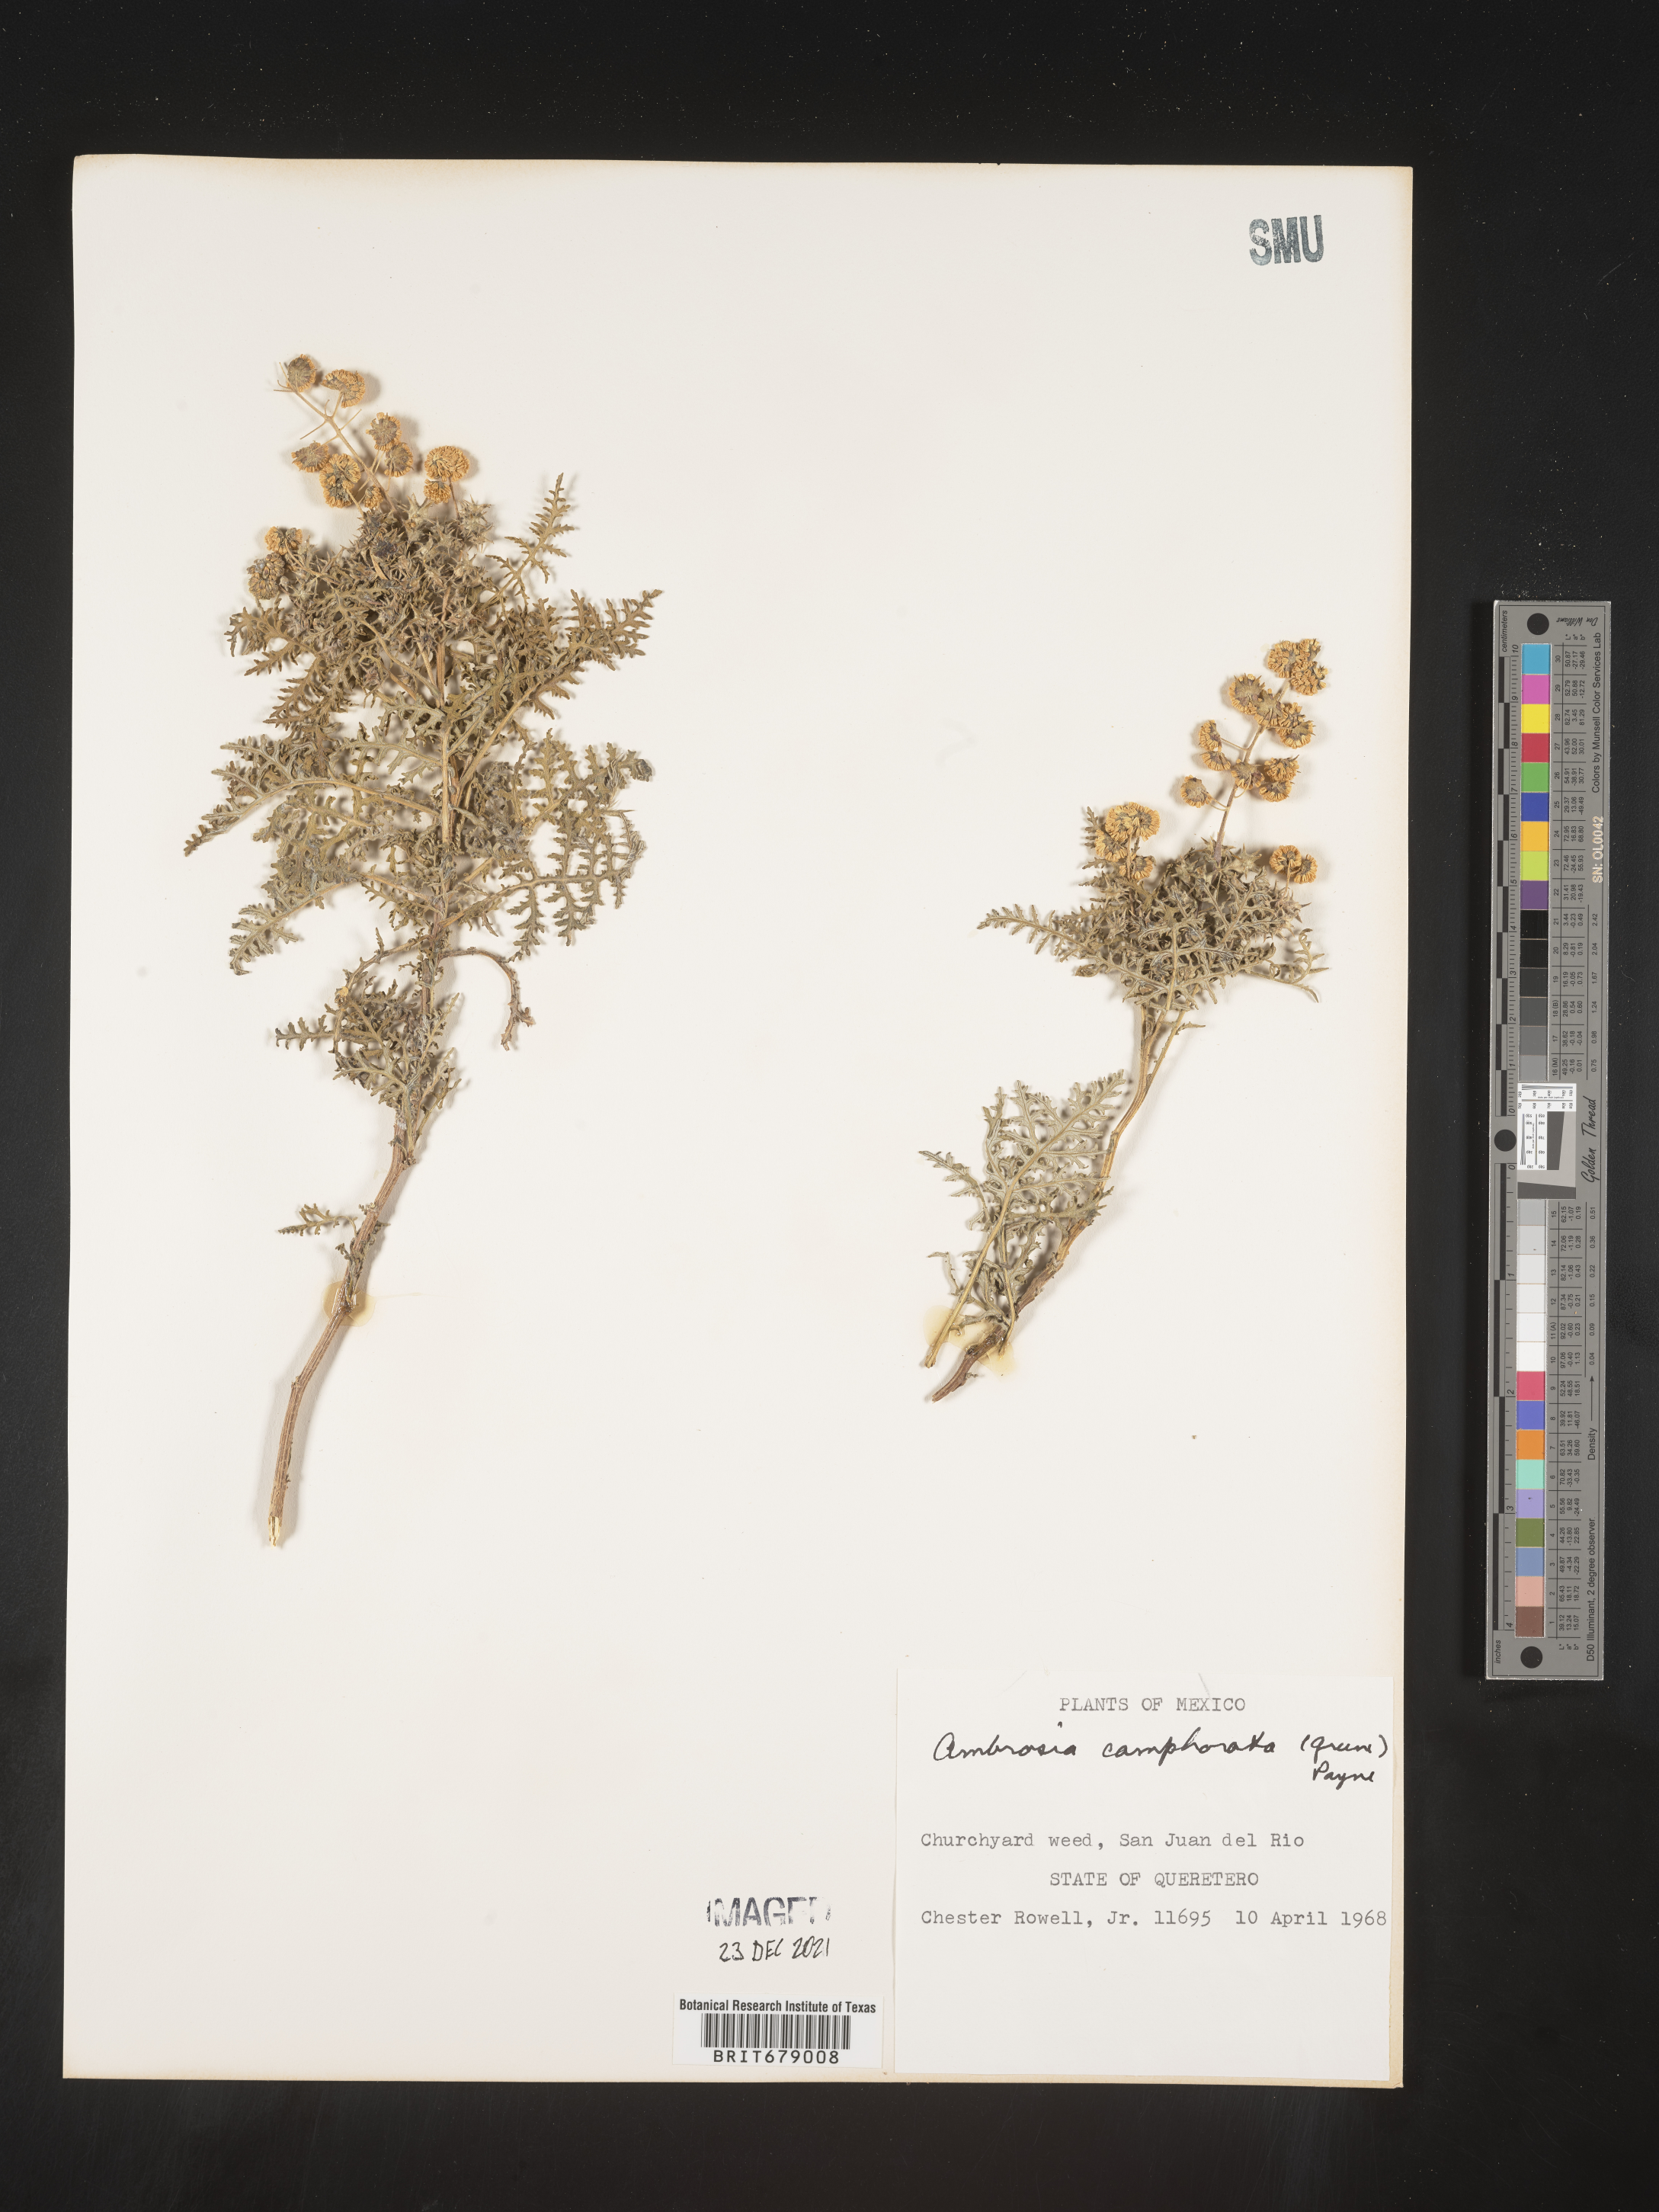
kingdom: Plantae
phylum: Tracheophyta
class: Magnoliopsida
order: Asterales
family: Asteraceae
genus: Ambrosia
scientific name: Ambrosia
